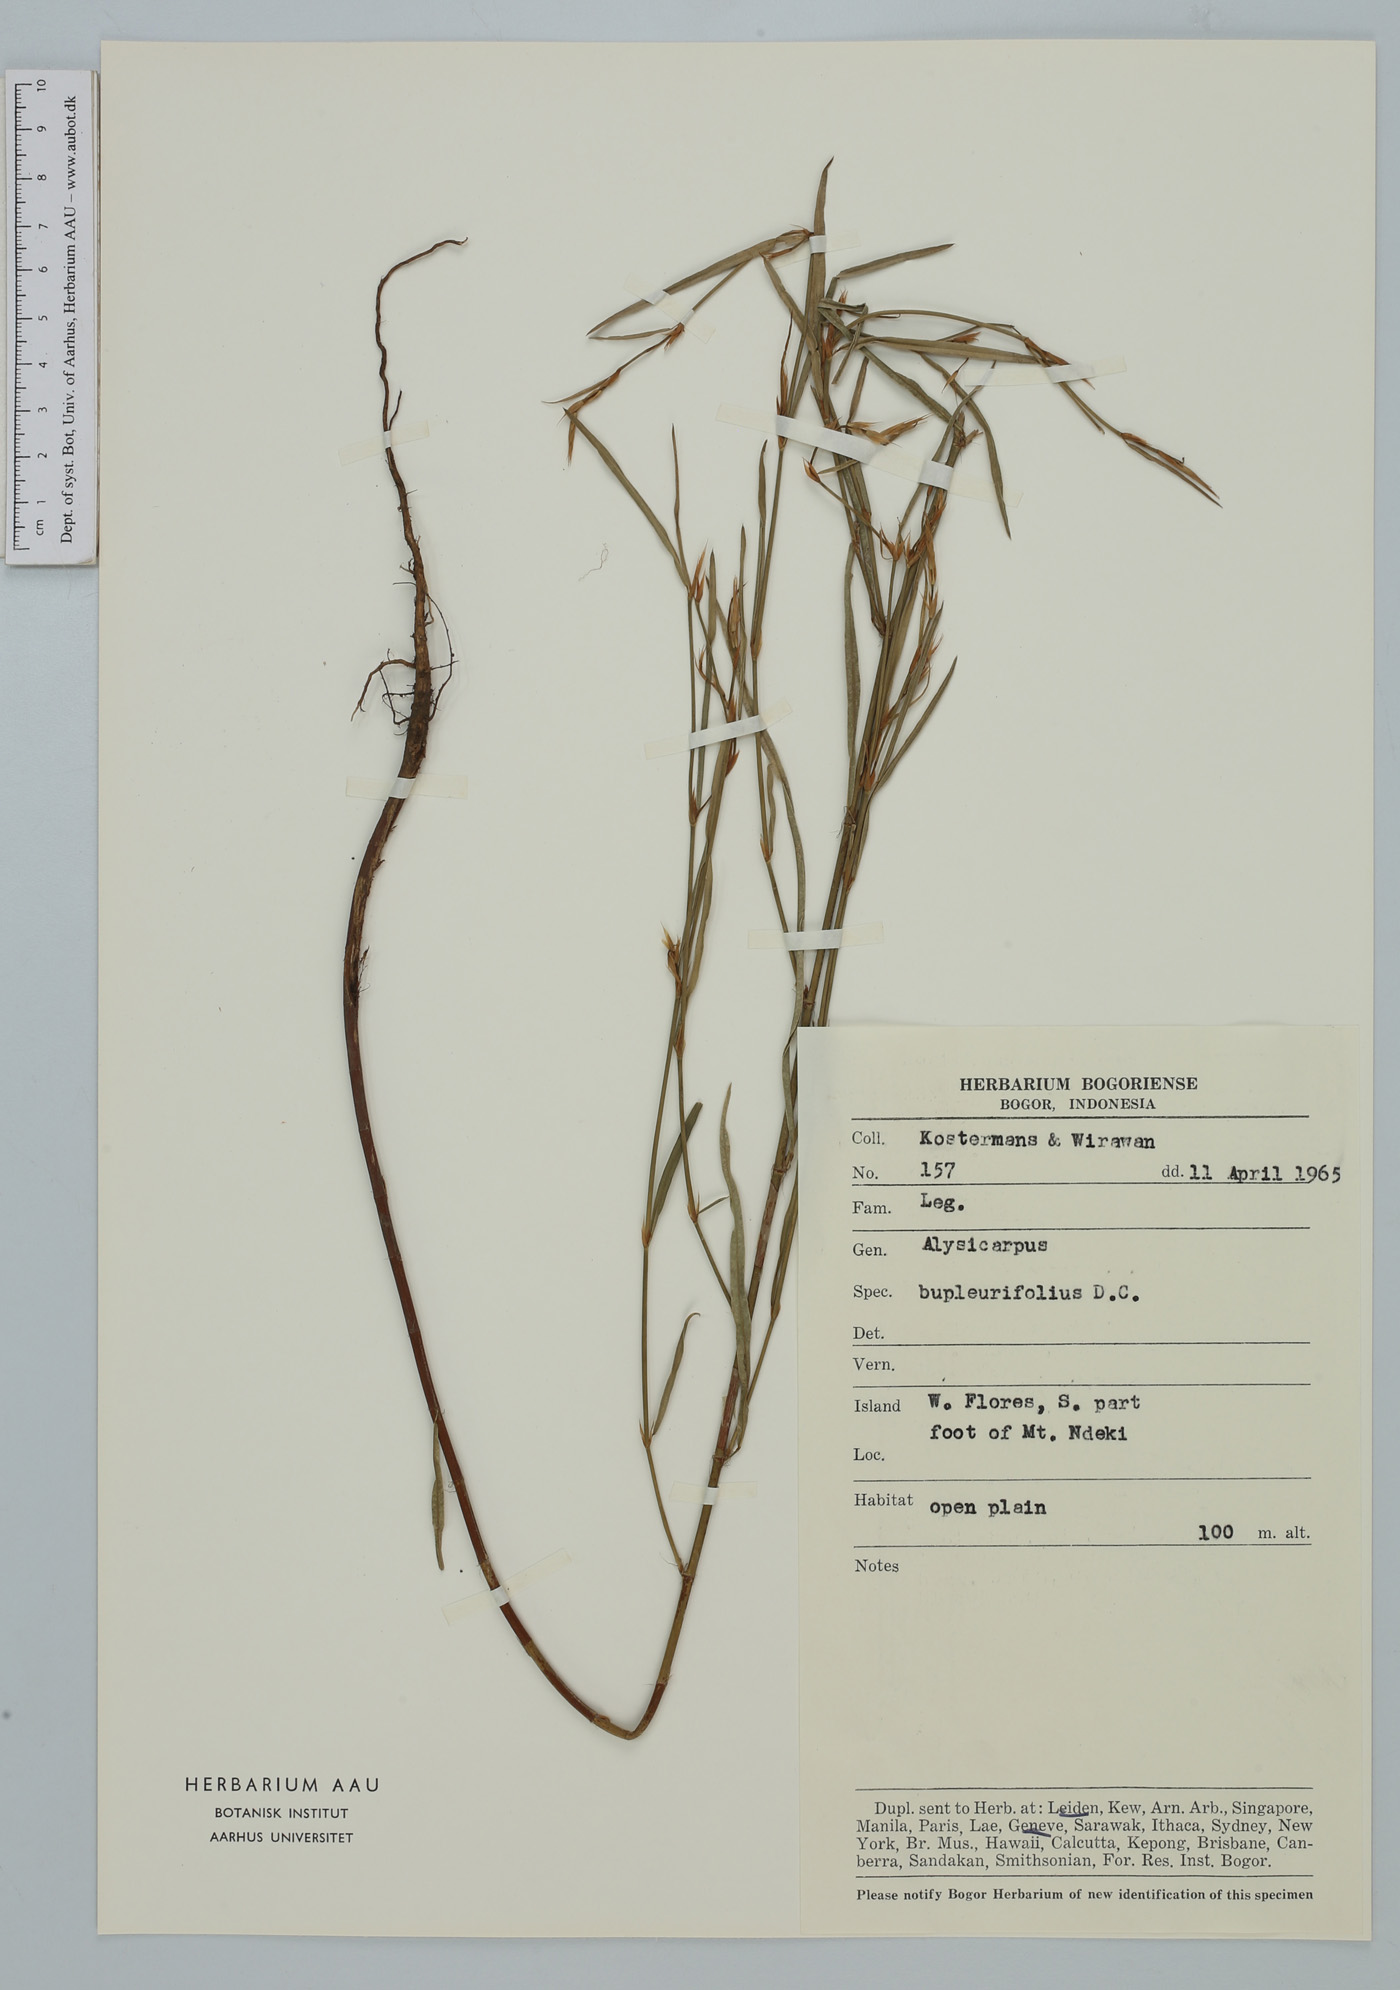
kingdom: Plantae
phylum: Tracheophyta
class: Magnoliopsida
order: Fabales
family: Fabaceae
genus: Alysicarpus
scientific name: Alysicarpus bupleurifolius
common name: Sweet alys
